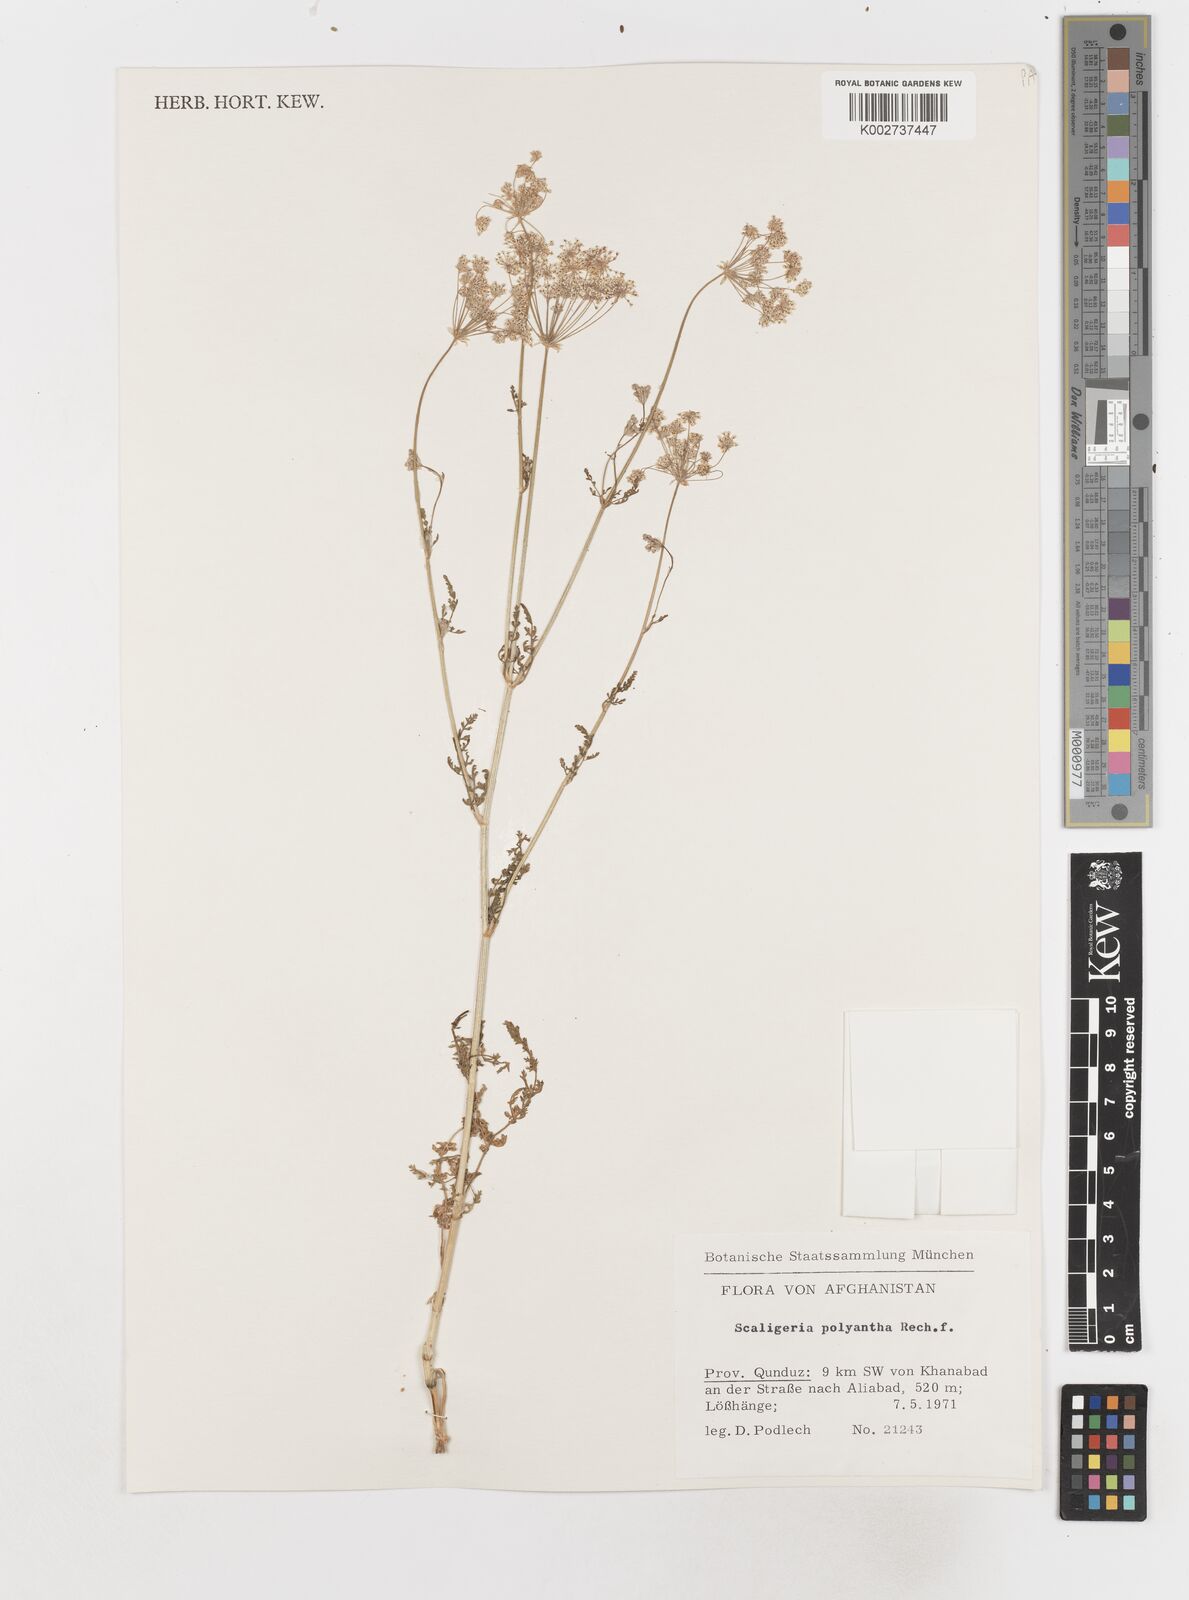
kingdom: Plantae
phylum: Tracheophyta
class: Magnoliopsida
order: Apiales
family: Apiaceae
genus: Scaligeria
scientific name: Scaligeria hirtula
